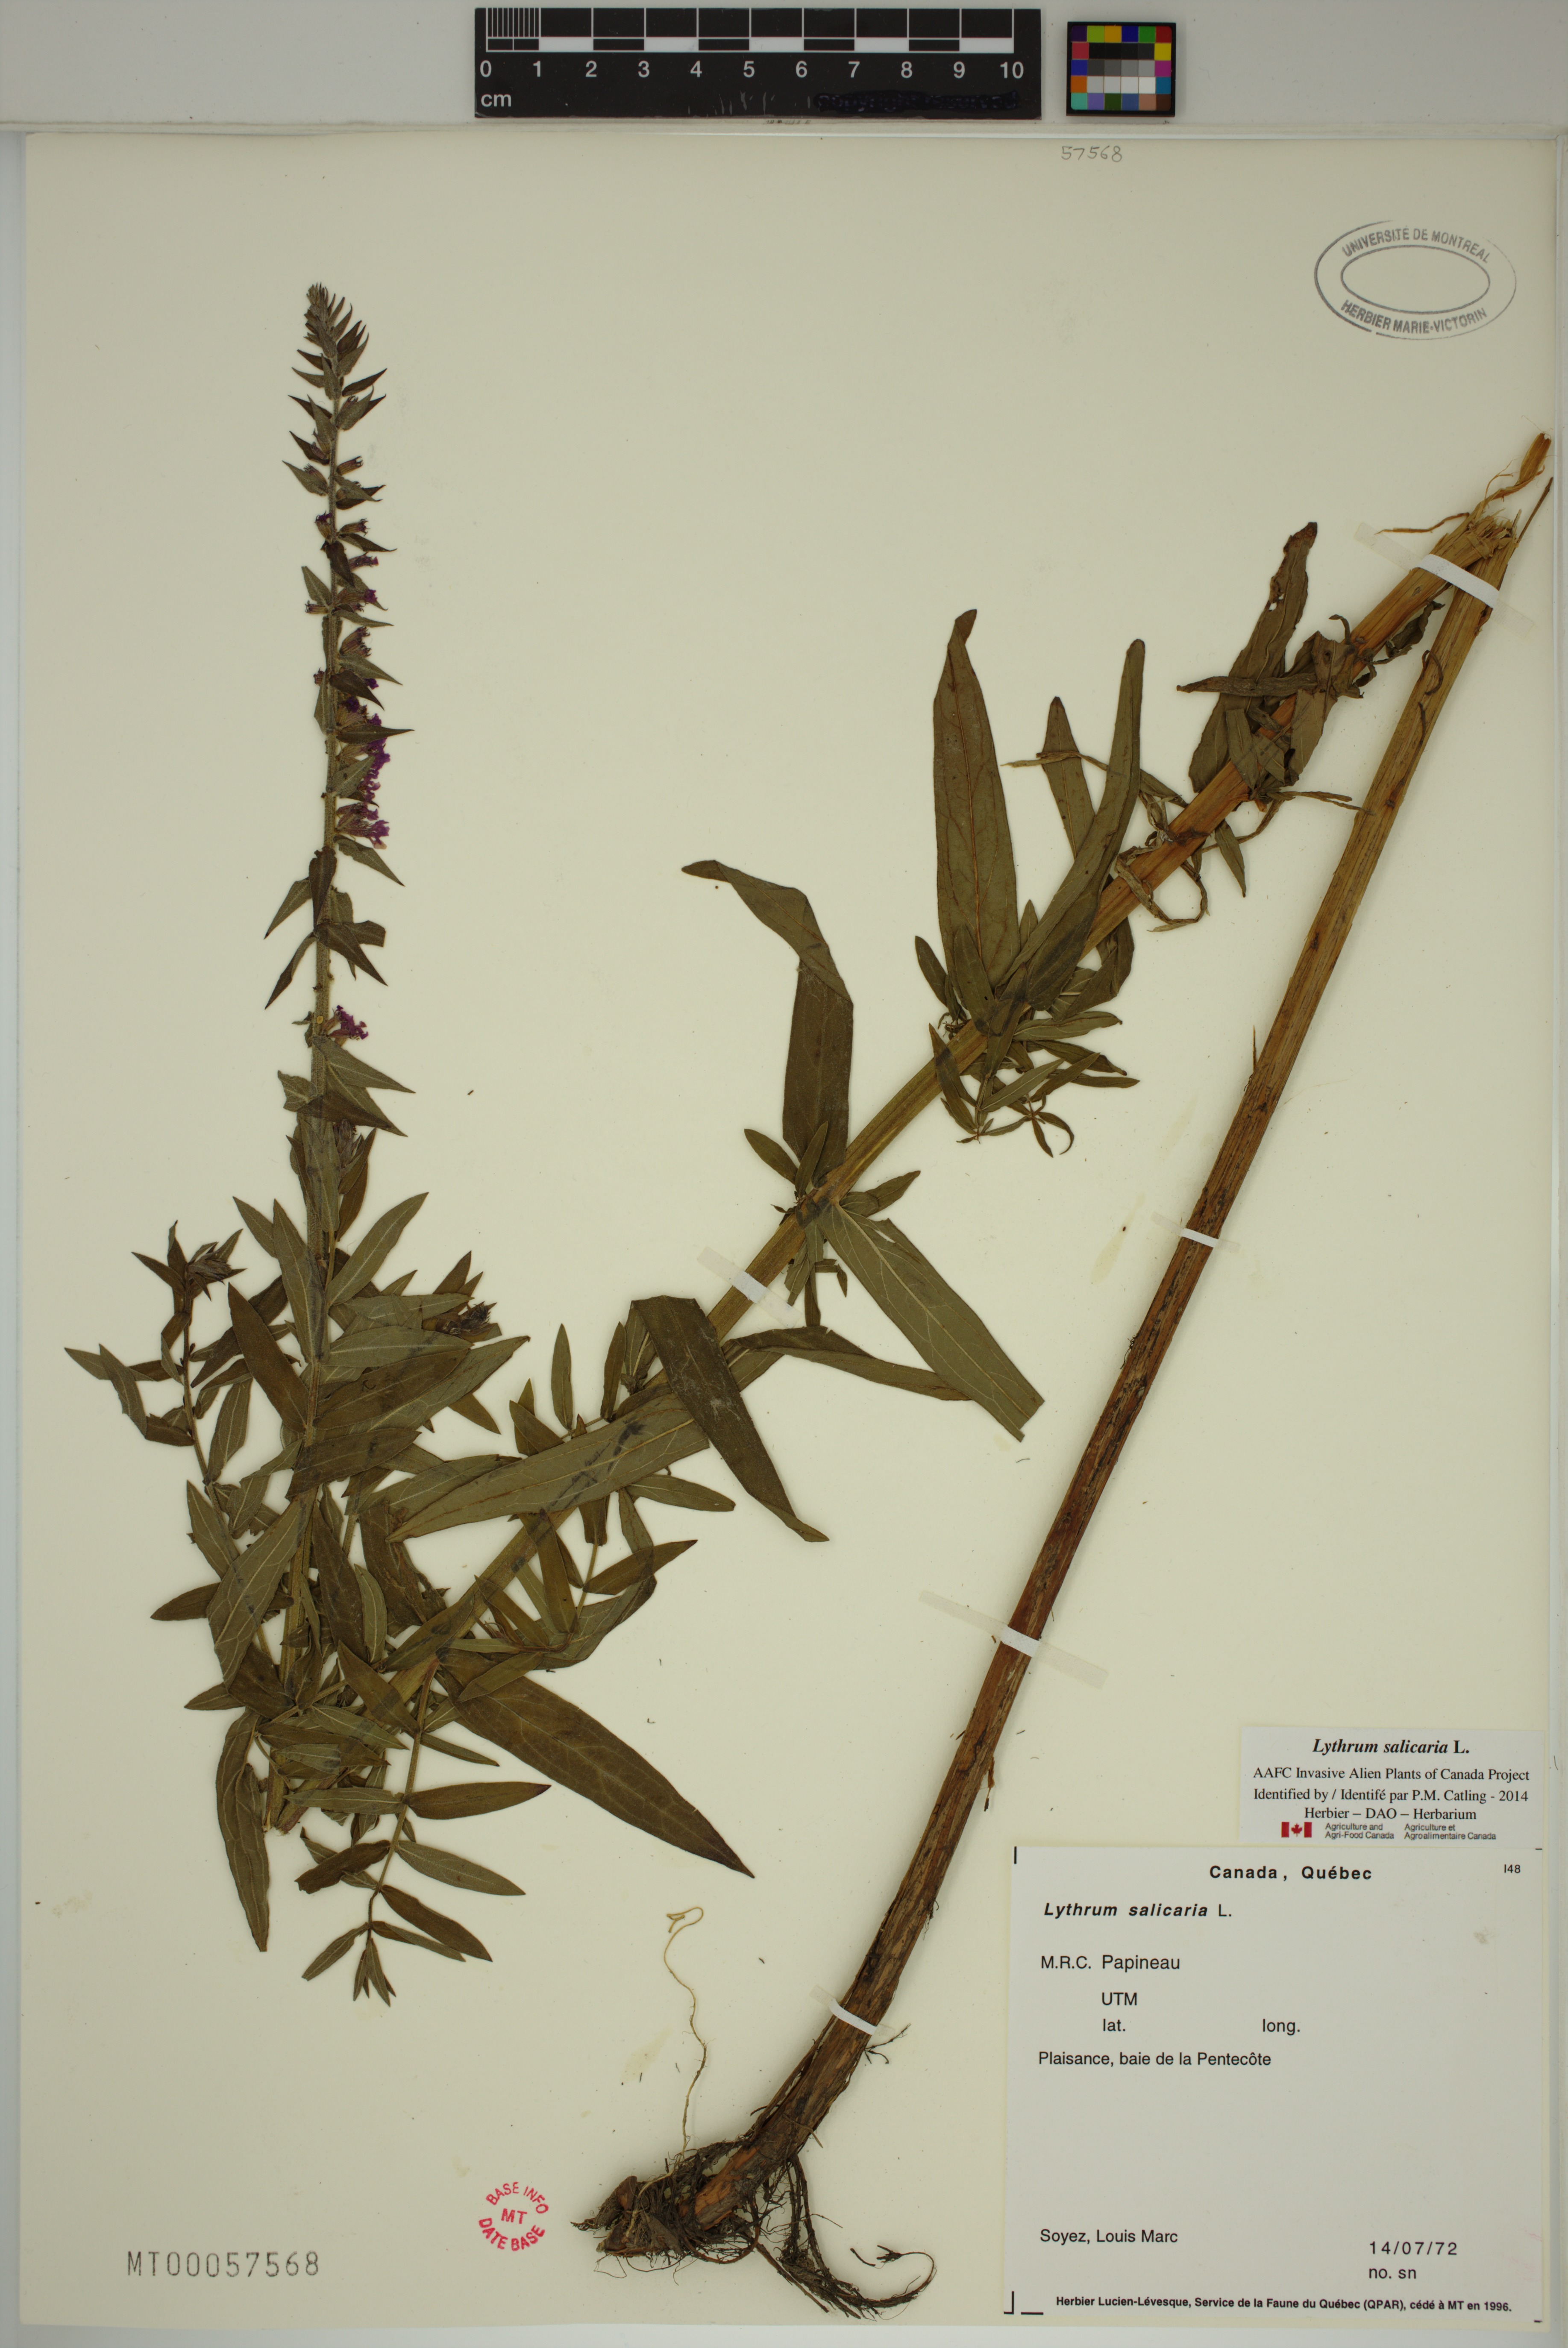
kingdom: Plantae
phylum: Tracheophyta
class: Magnoliopsida
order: Myrtales
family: Lythraceae
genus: Lythrum
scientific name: Lythrum salicaria
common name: Purple loosestrife
